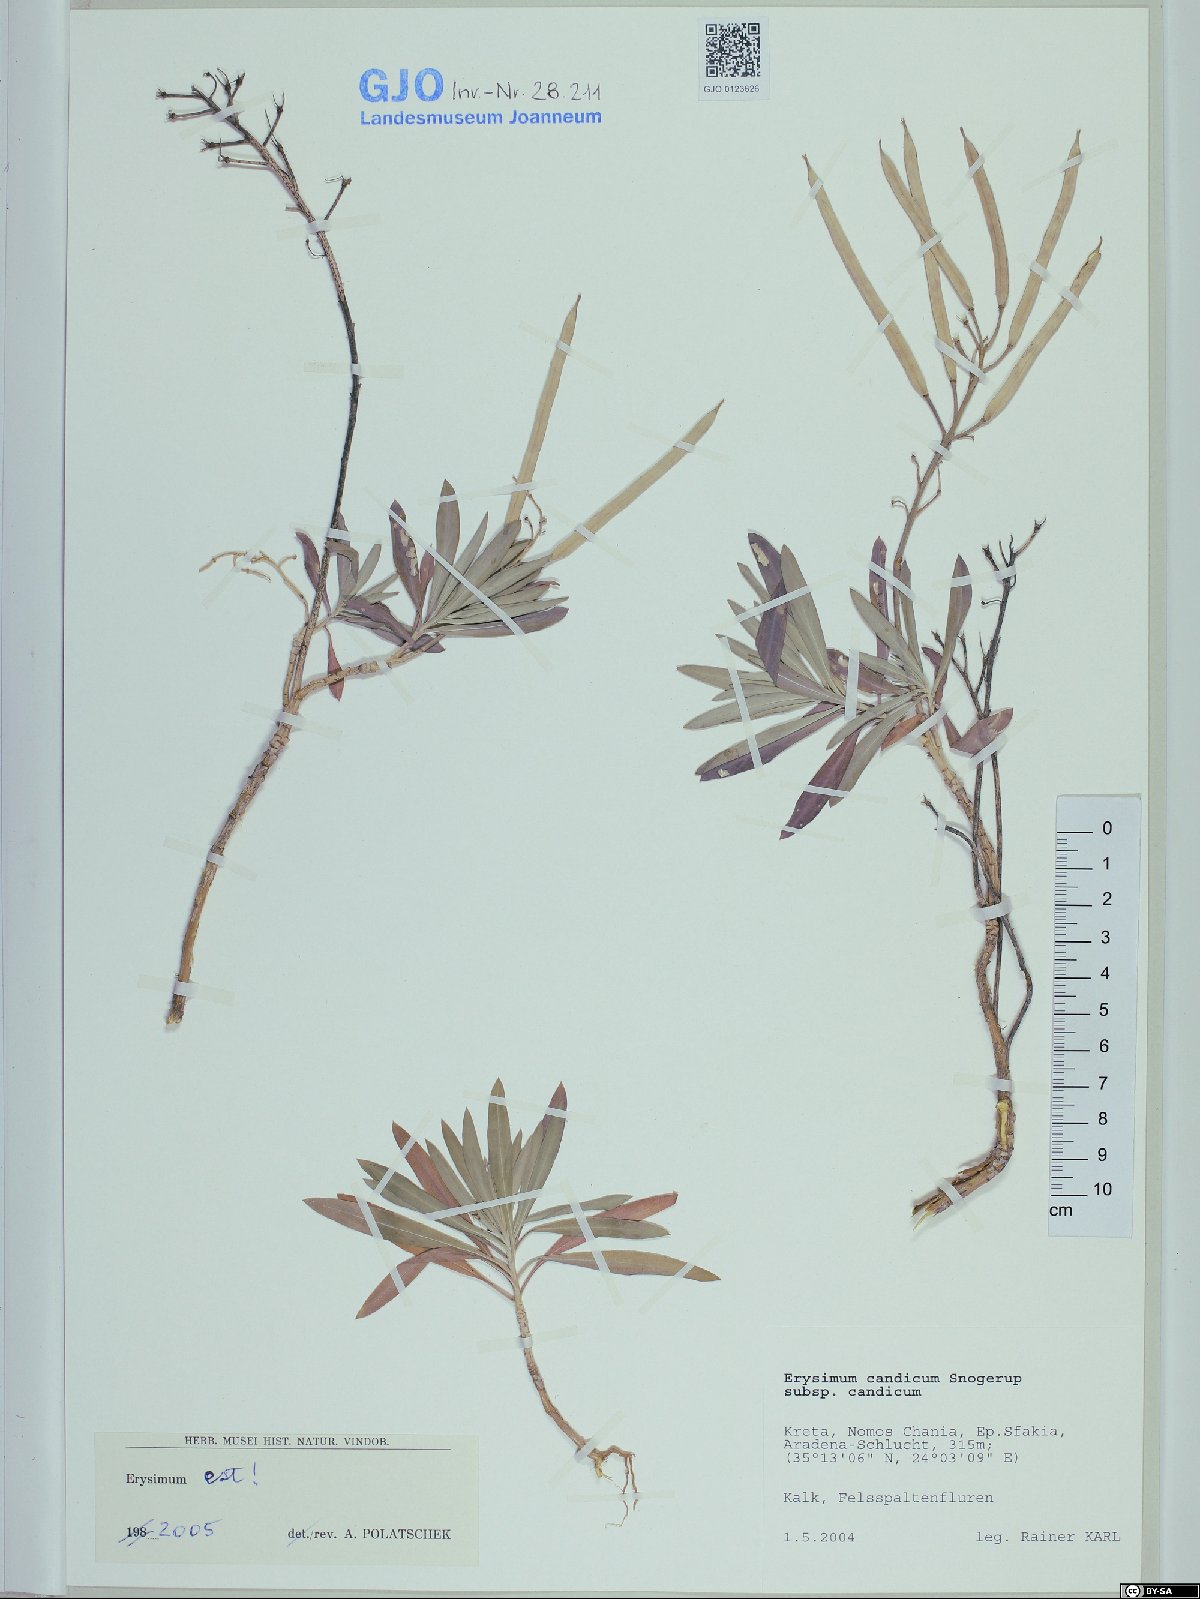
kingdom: Plantae
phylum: Tracheophyta
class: Magnoliopsida
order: Brassicales
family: Brassicaceae
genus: Erysimum
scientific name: Erysimum candicum
